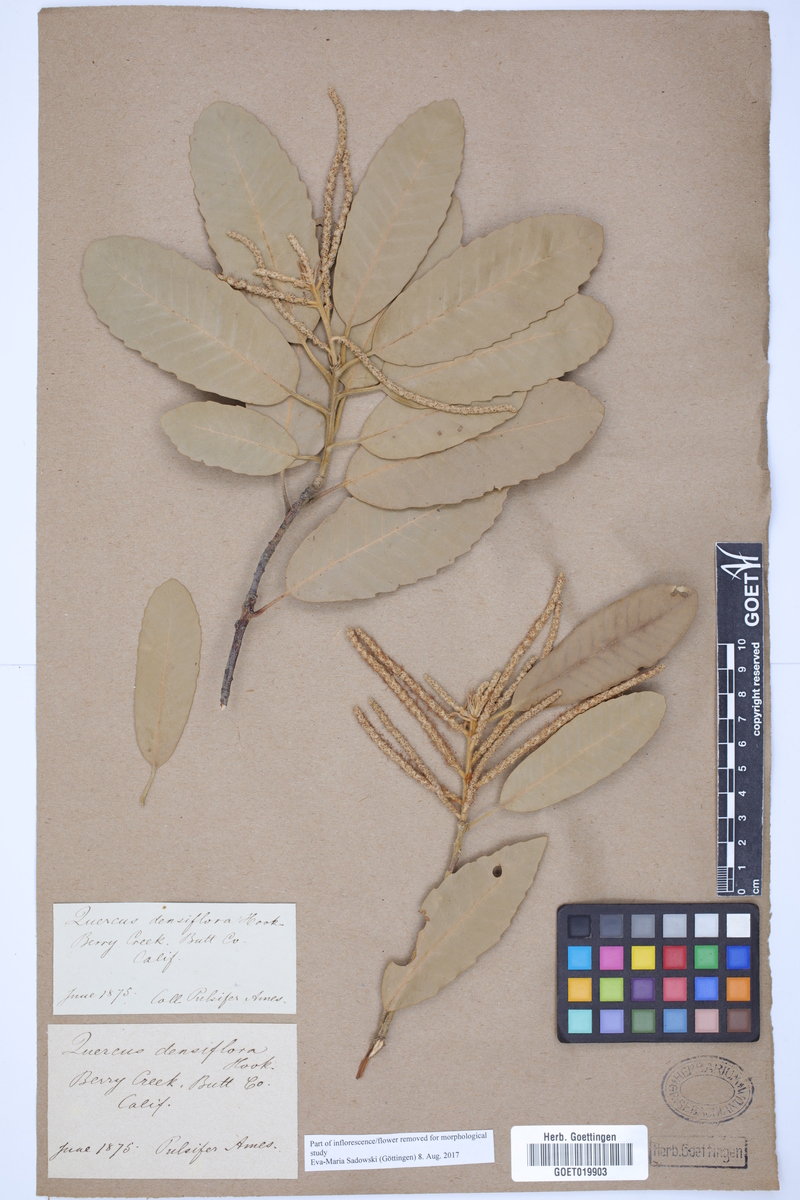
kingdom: Plantae
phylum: Tracheophyta
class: Magnoliopsida
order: Fagales
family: Fagaceae
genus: Notholithocarpus
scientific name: Notholithocarpus densiflorus
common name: Tan bark oak
